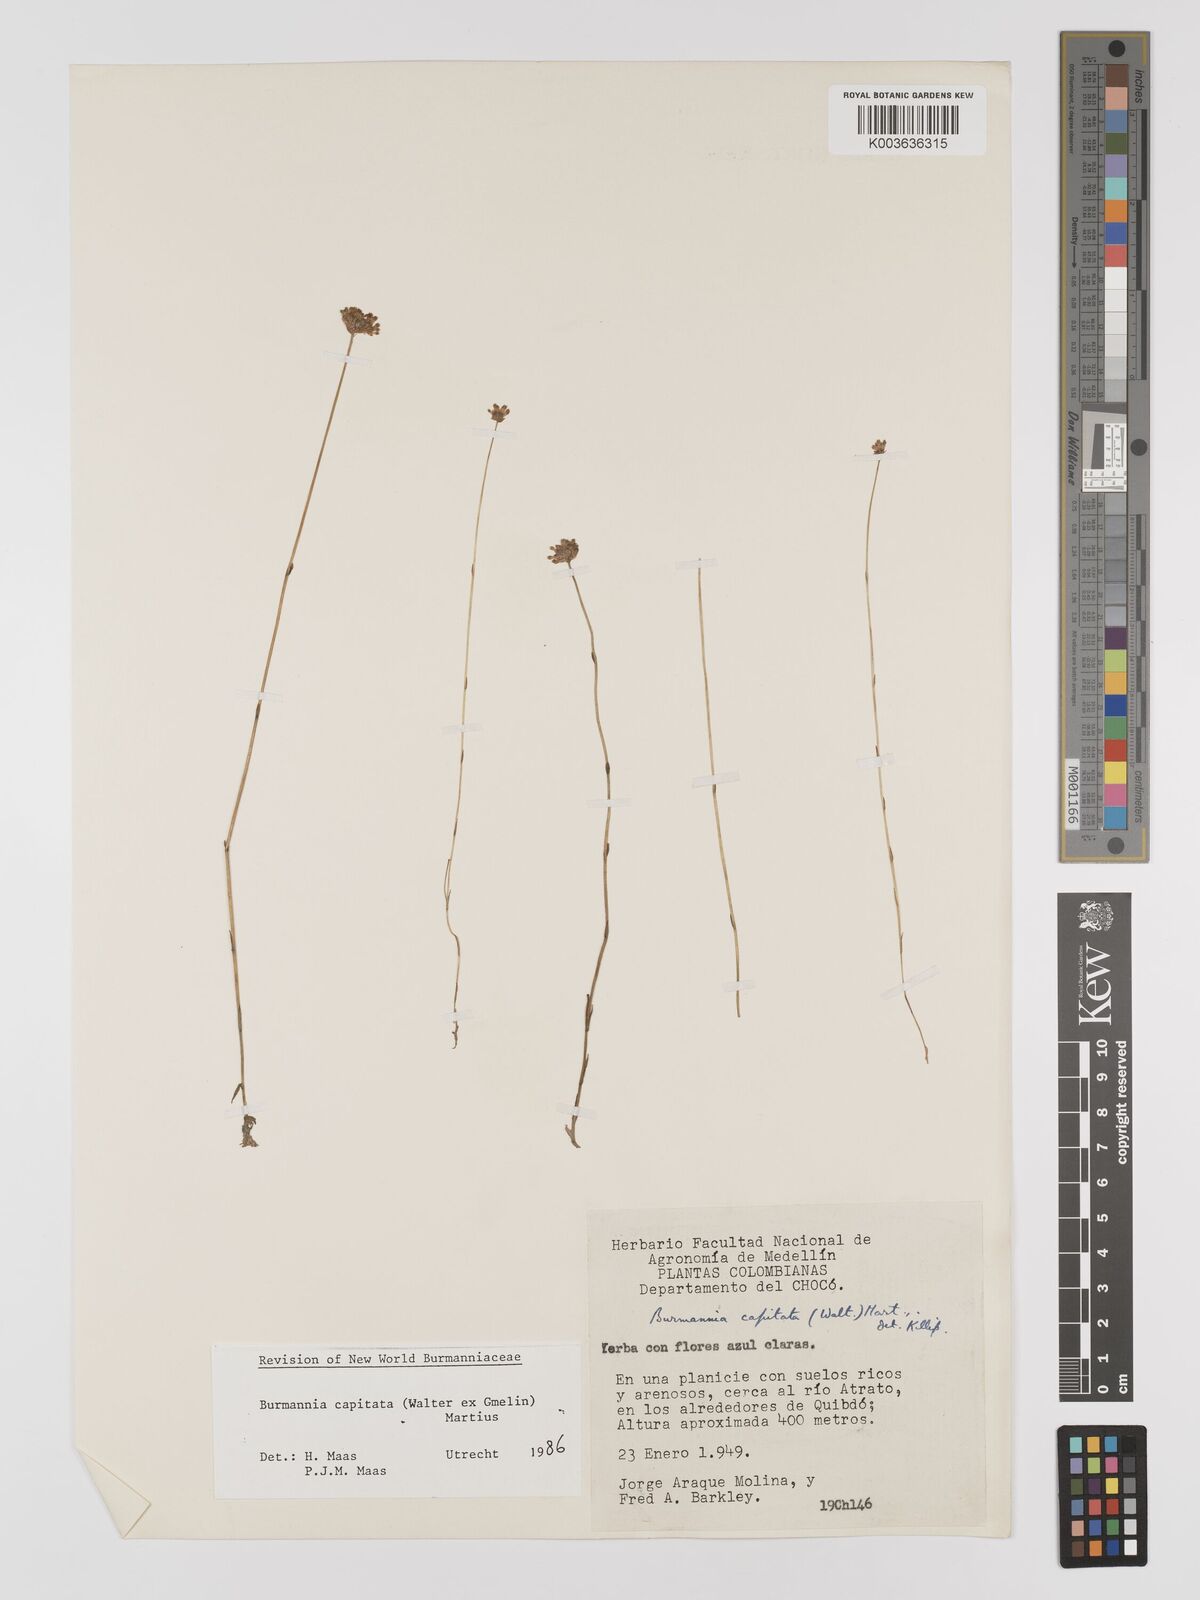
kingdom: Plantae
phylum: Tracheophyta
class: Liliopsida
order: Dioscoreales
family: Burmanniaceae
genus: Burmannia
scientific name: Burmannia capitata
